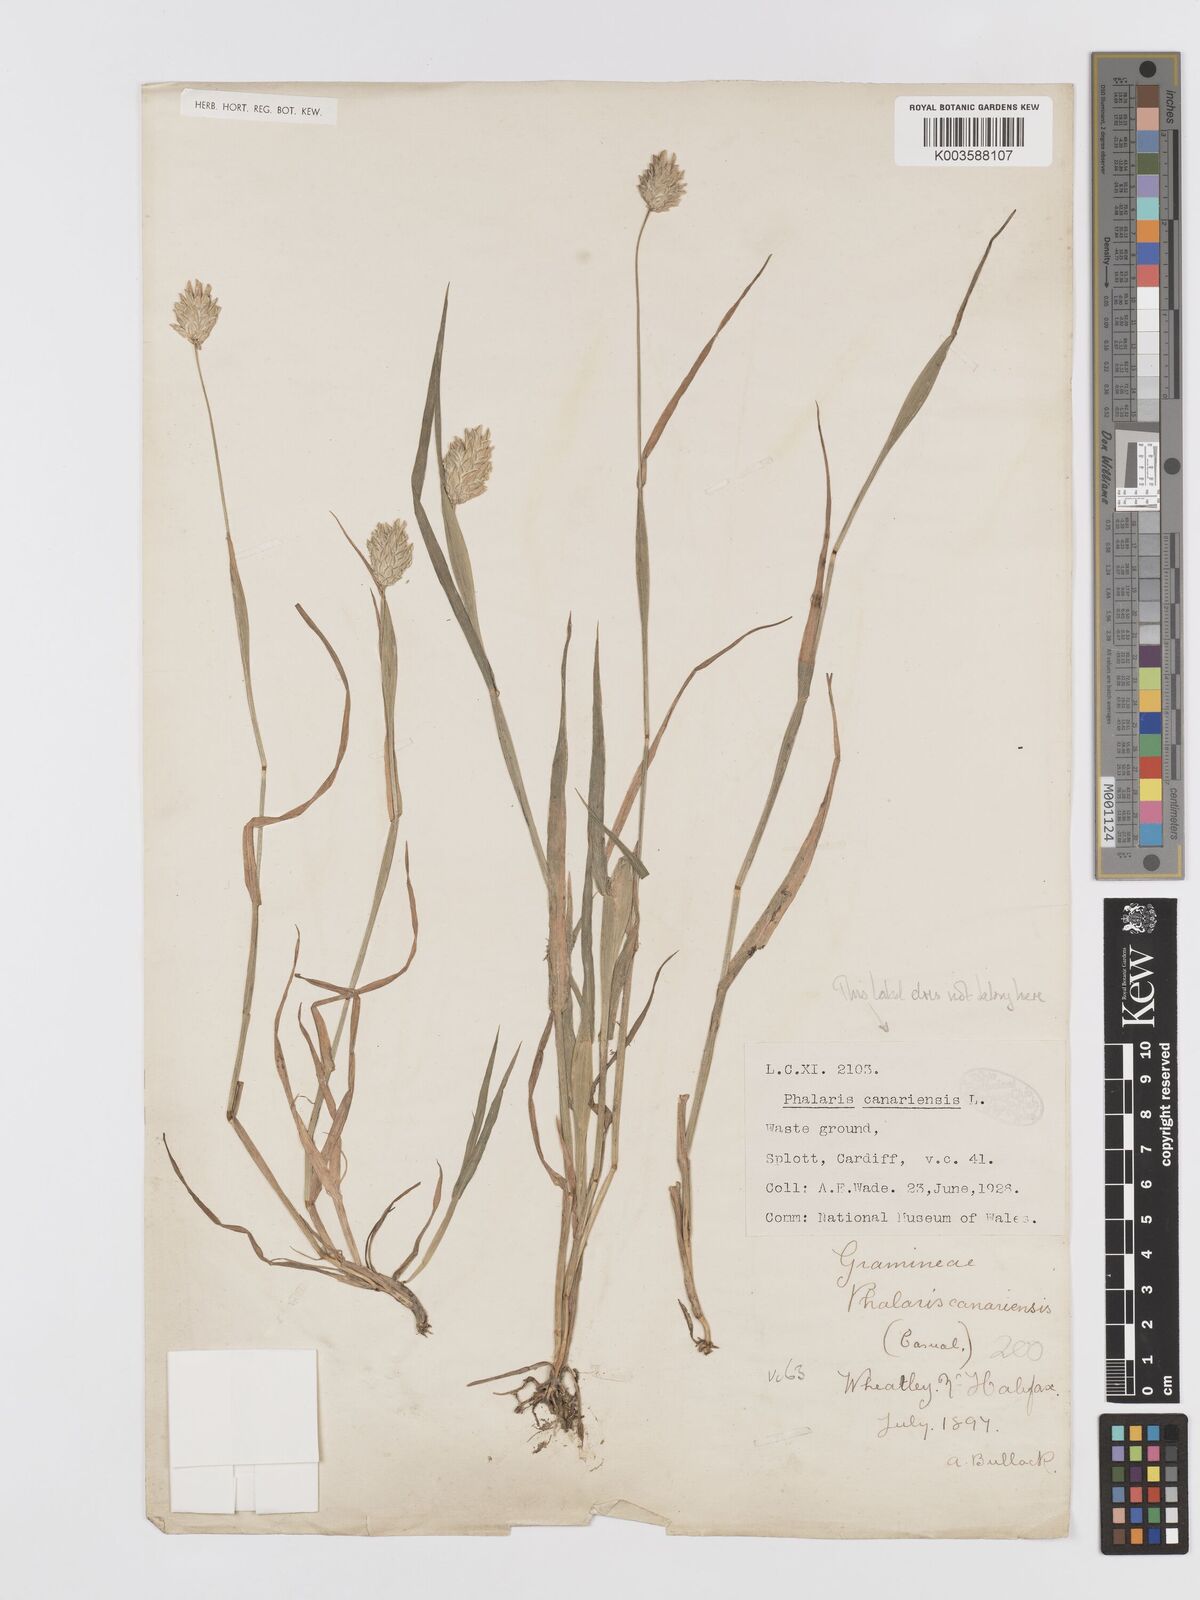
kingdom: Plantae
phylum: Tracheophyta
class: Liliopsida
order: Poales
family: Poaceae
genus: Phalaris
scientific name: Phalaris canariensis
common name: Annual canarygrass
